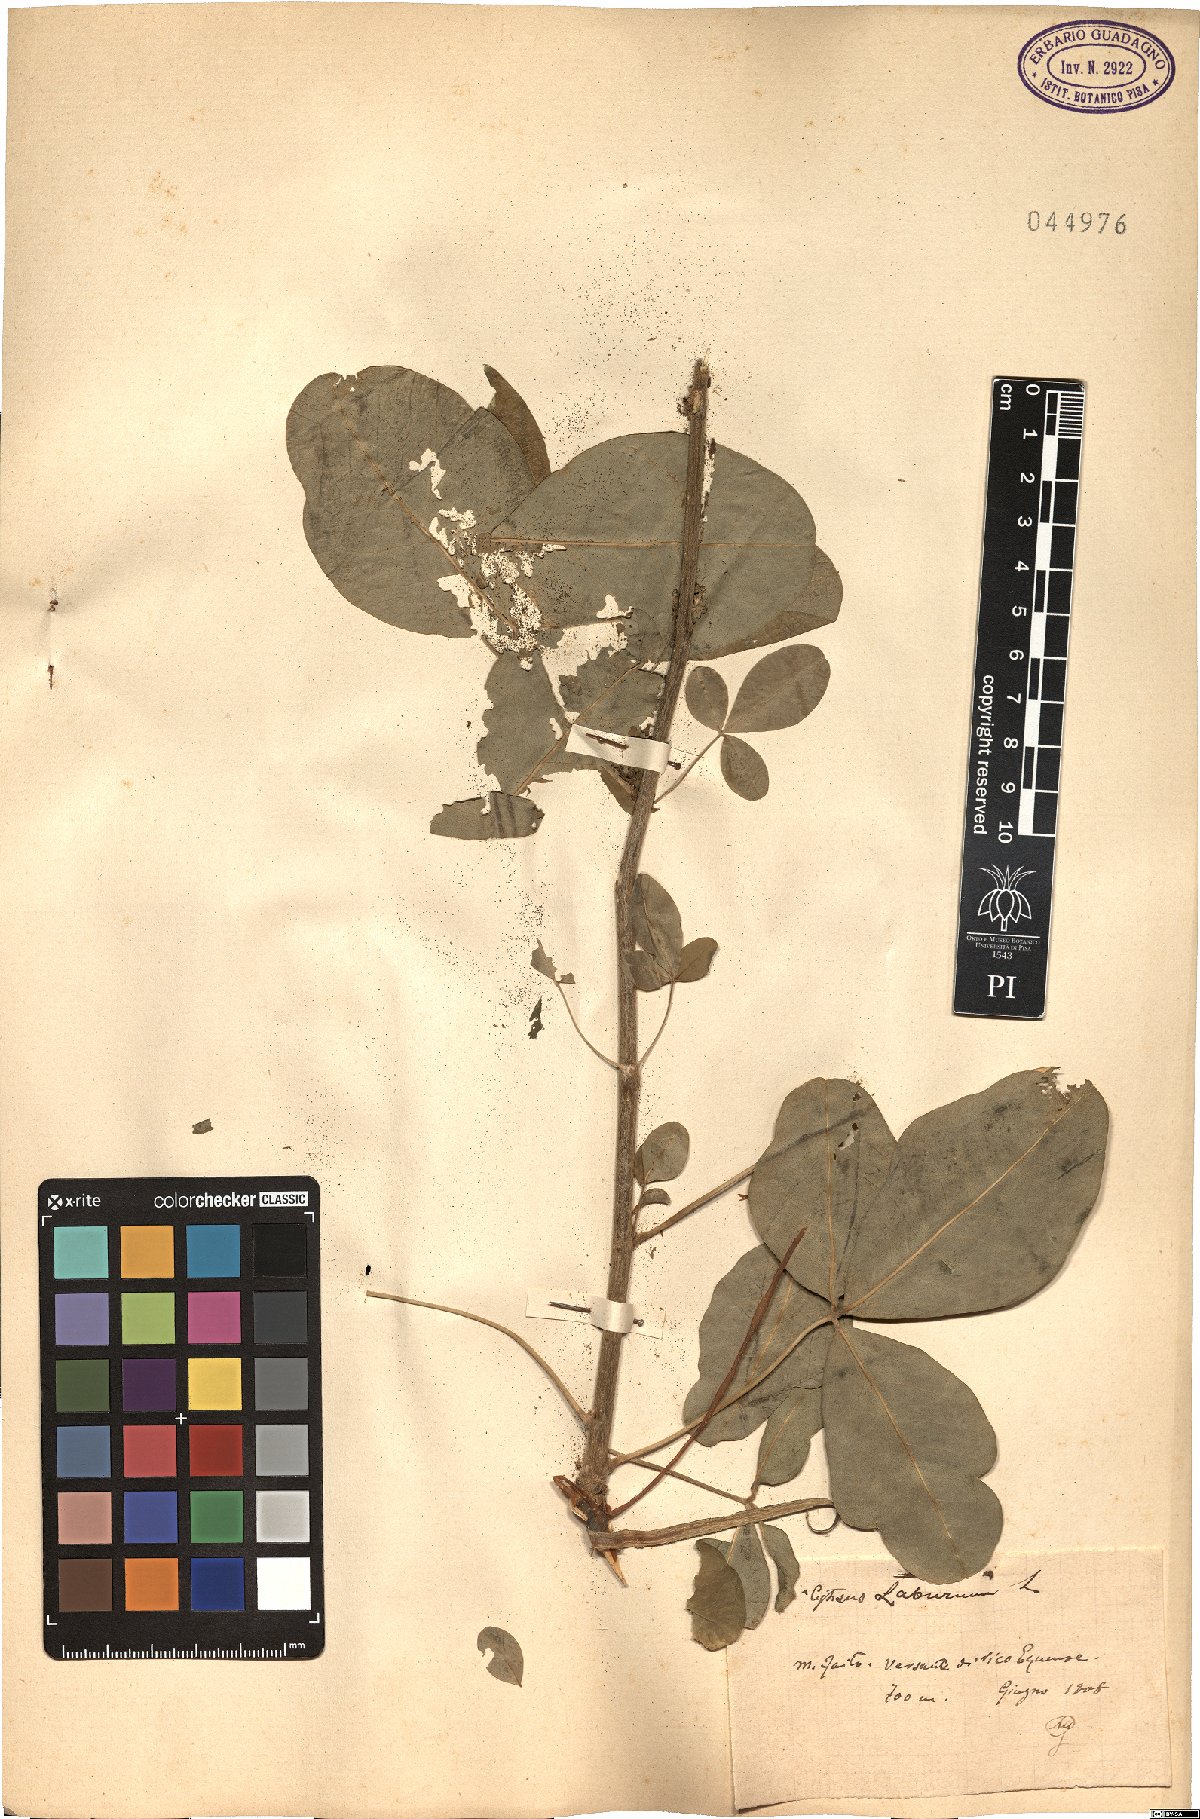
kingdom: Plantae
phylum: Tracheophyta
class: Magnoliopsida
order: Fabales
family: Fabaceae
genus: Laburnum
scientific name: Laburnum anagyroides
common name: Laburnum
